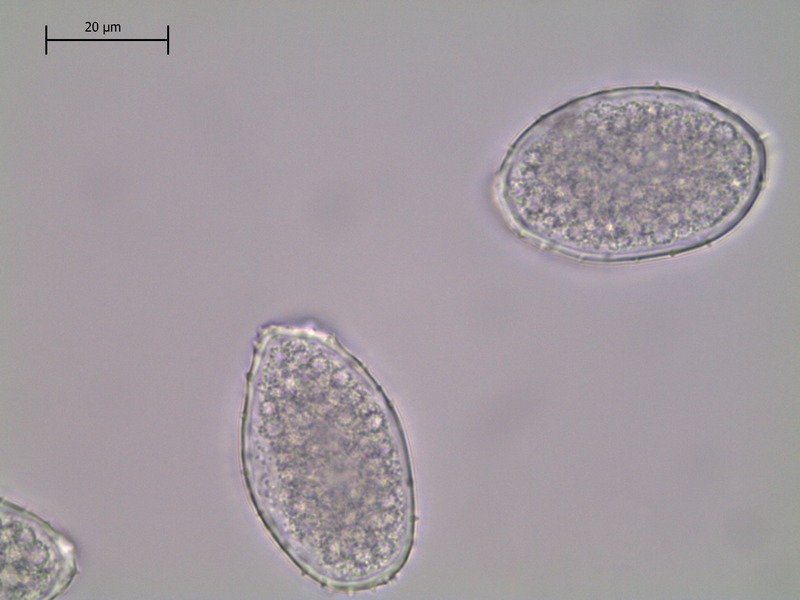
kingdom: Fungi
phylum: Basidiomycota
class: Pucciniomycetes
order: Pucciniales
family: Milesinaceae
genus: Milesina
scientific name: Milesina scolopendrii
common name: Hart's tongue fern rust
